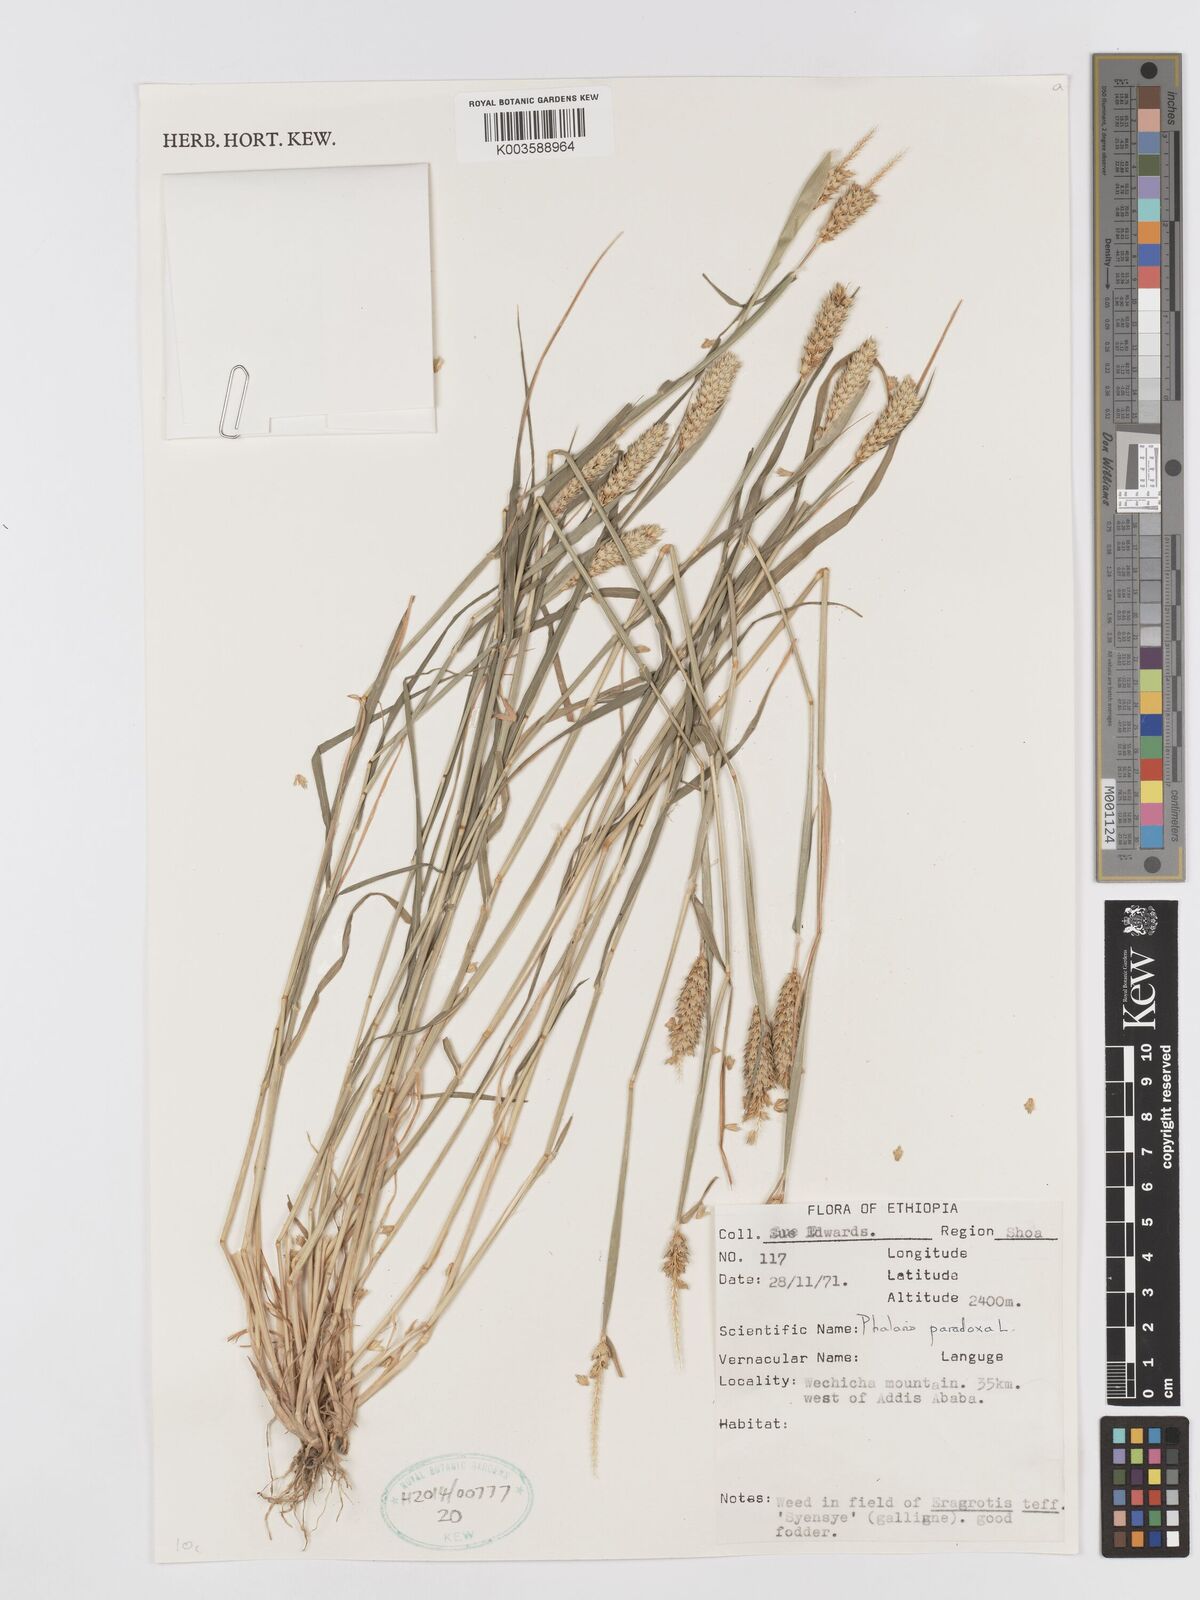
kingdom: Plantae
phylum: Tracheophyta
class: Liliopsida
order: Poales
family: Poaceae
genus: Phalaris
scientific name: Phalaris paradoxa
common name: Awned canary-grass
